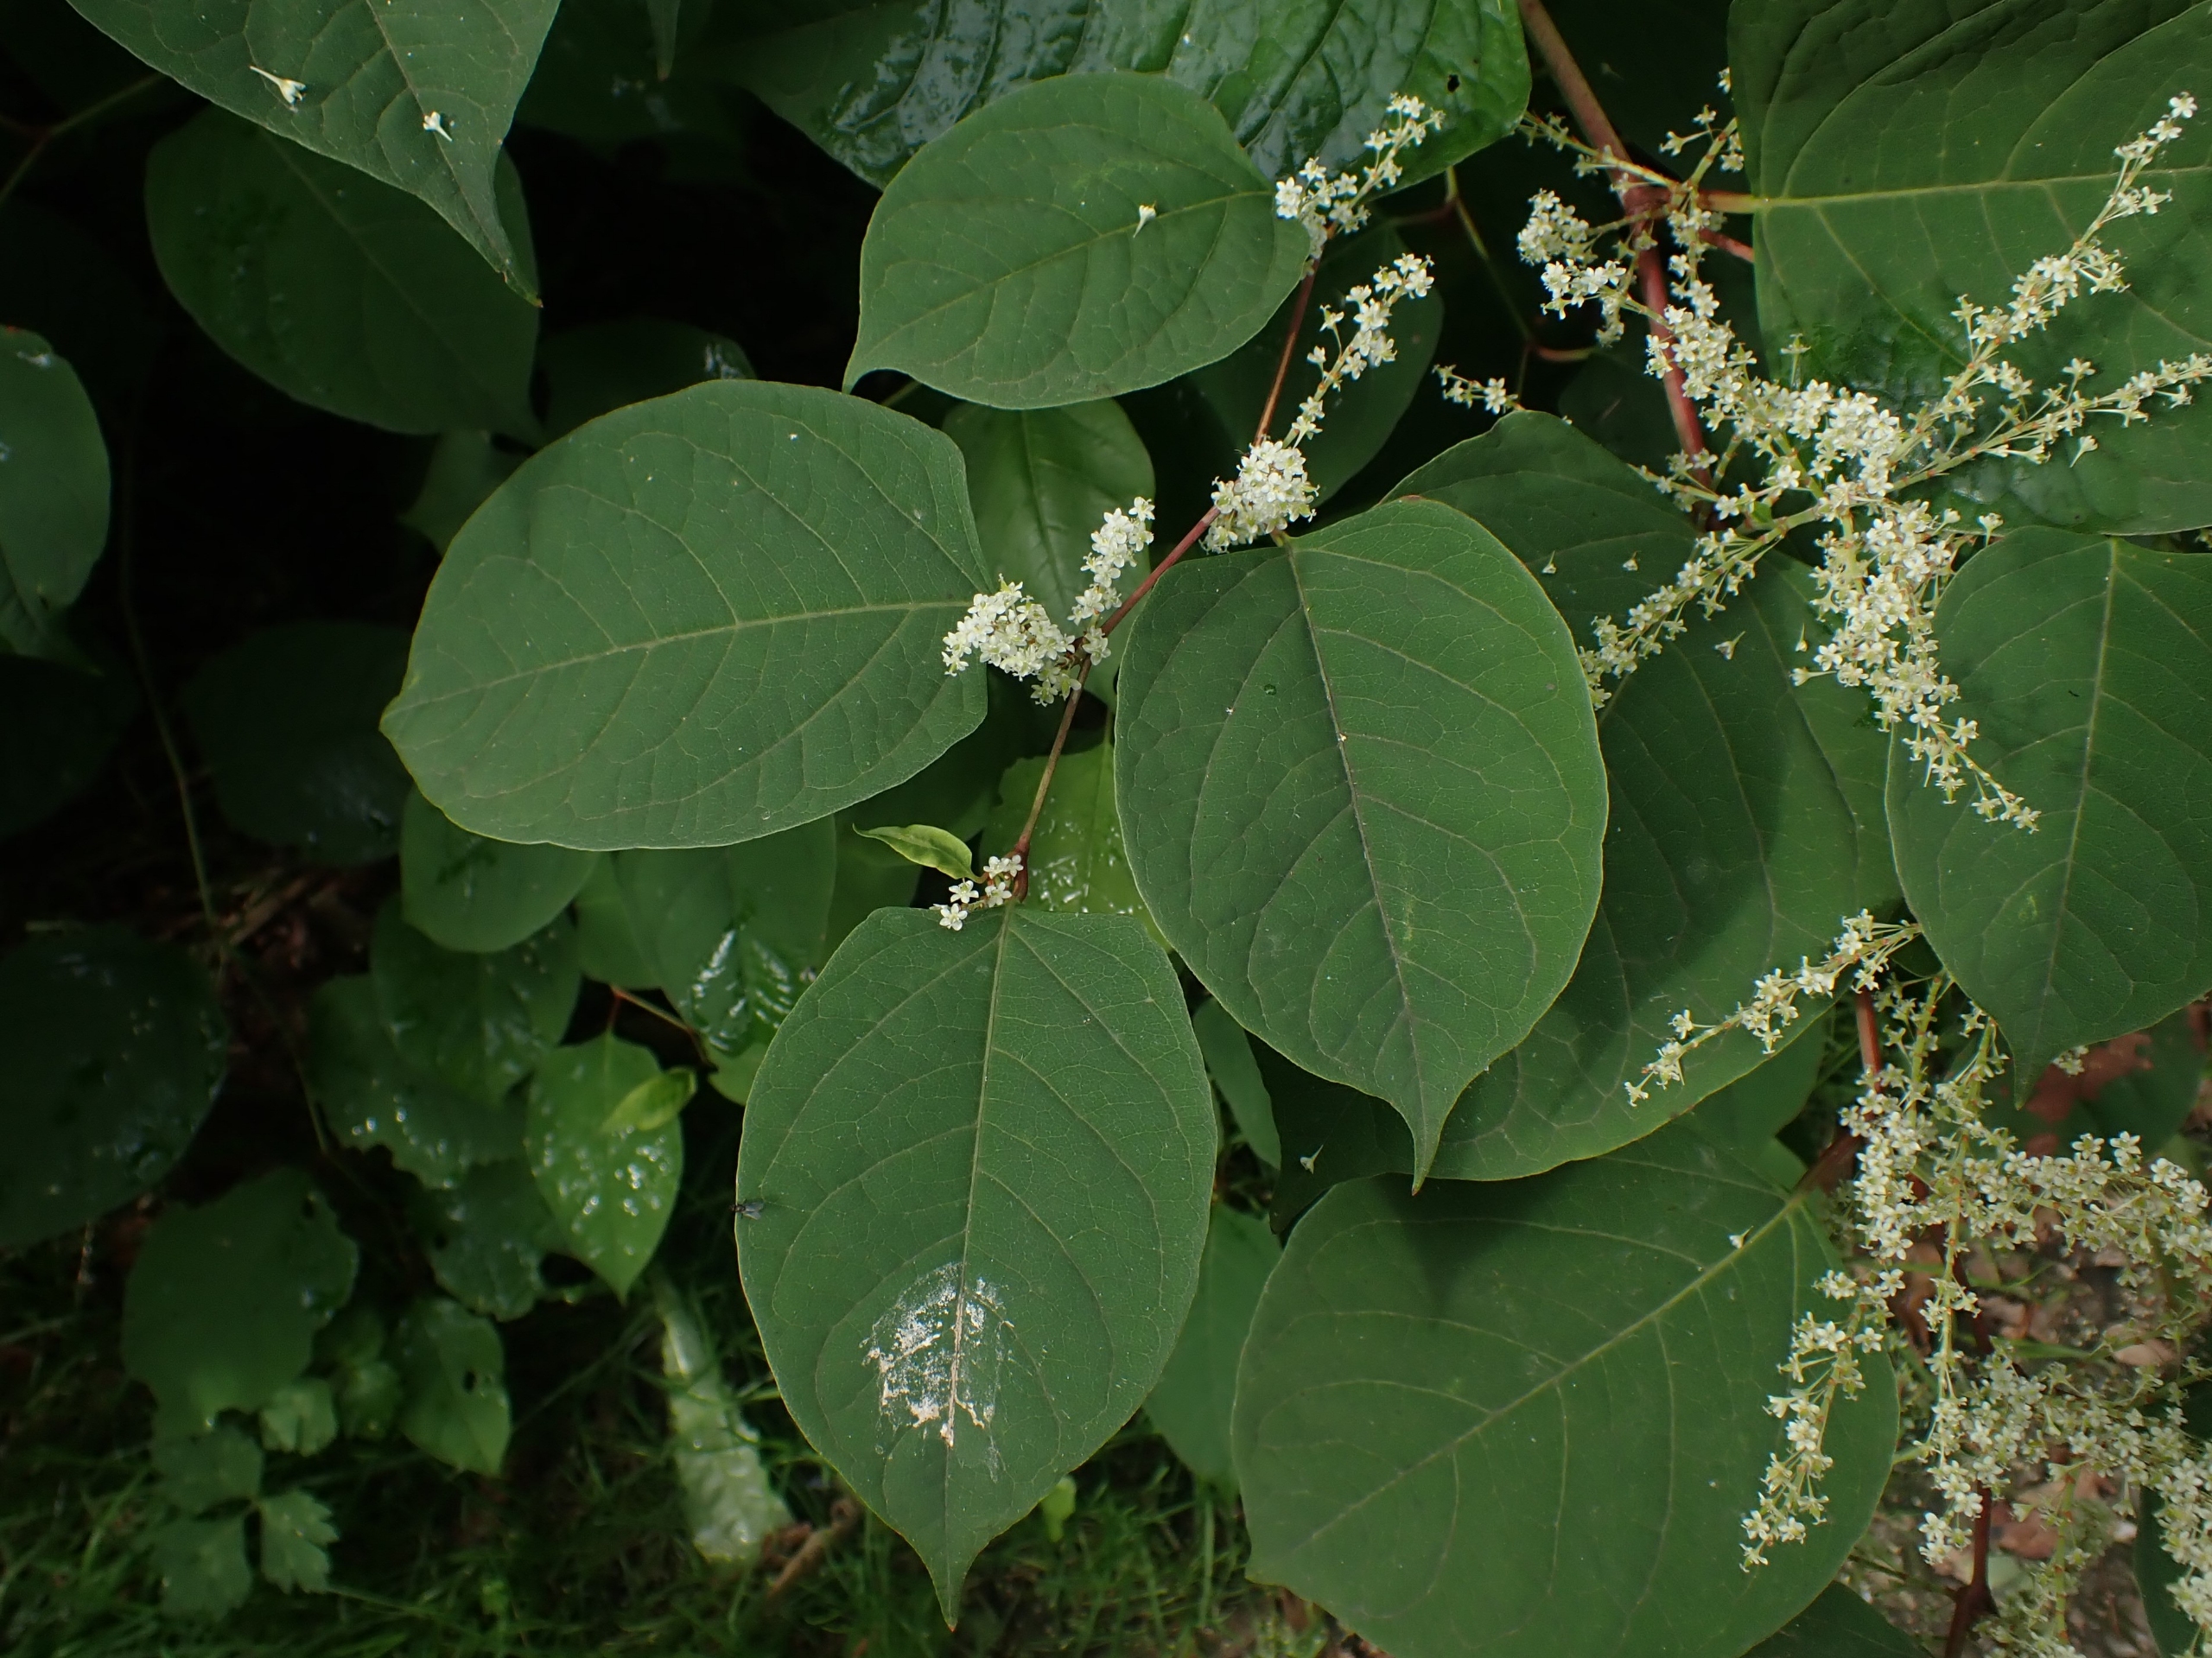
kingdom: Plantae
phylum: Tracheophyta
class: Magnoliopsida
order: Caryophyllales
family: Polygonaceae
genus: Reynoutria
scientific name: Reynoutria japonica
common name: Japan-pileurt
